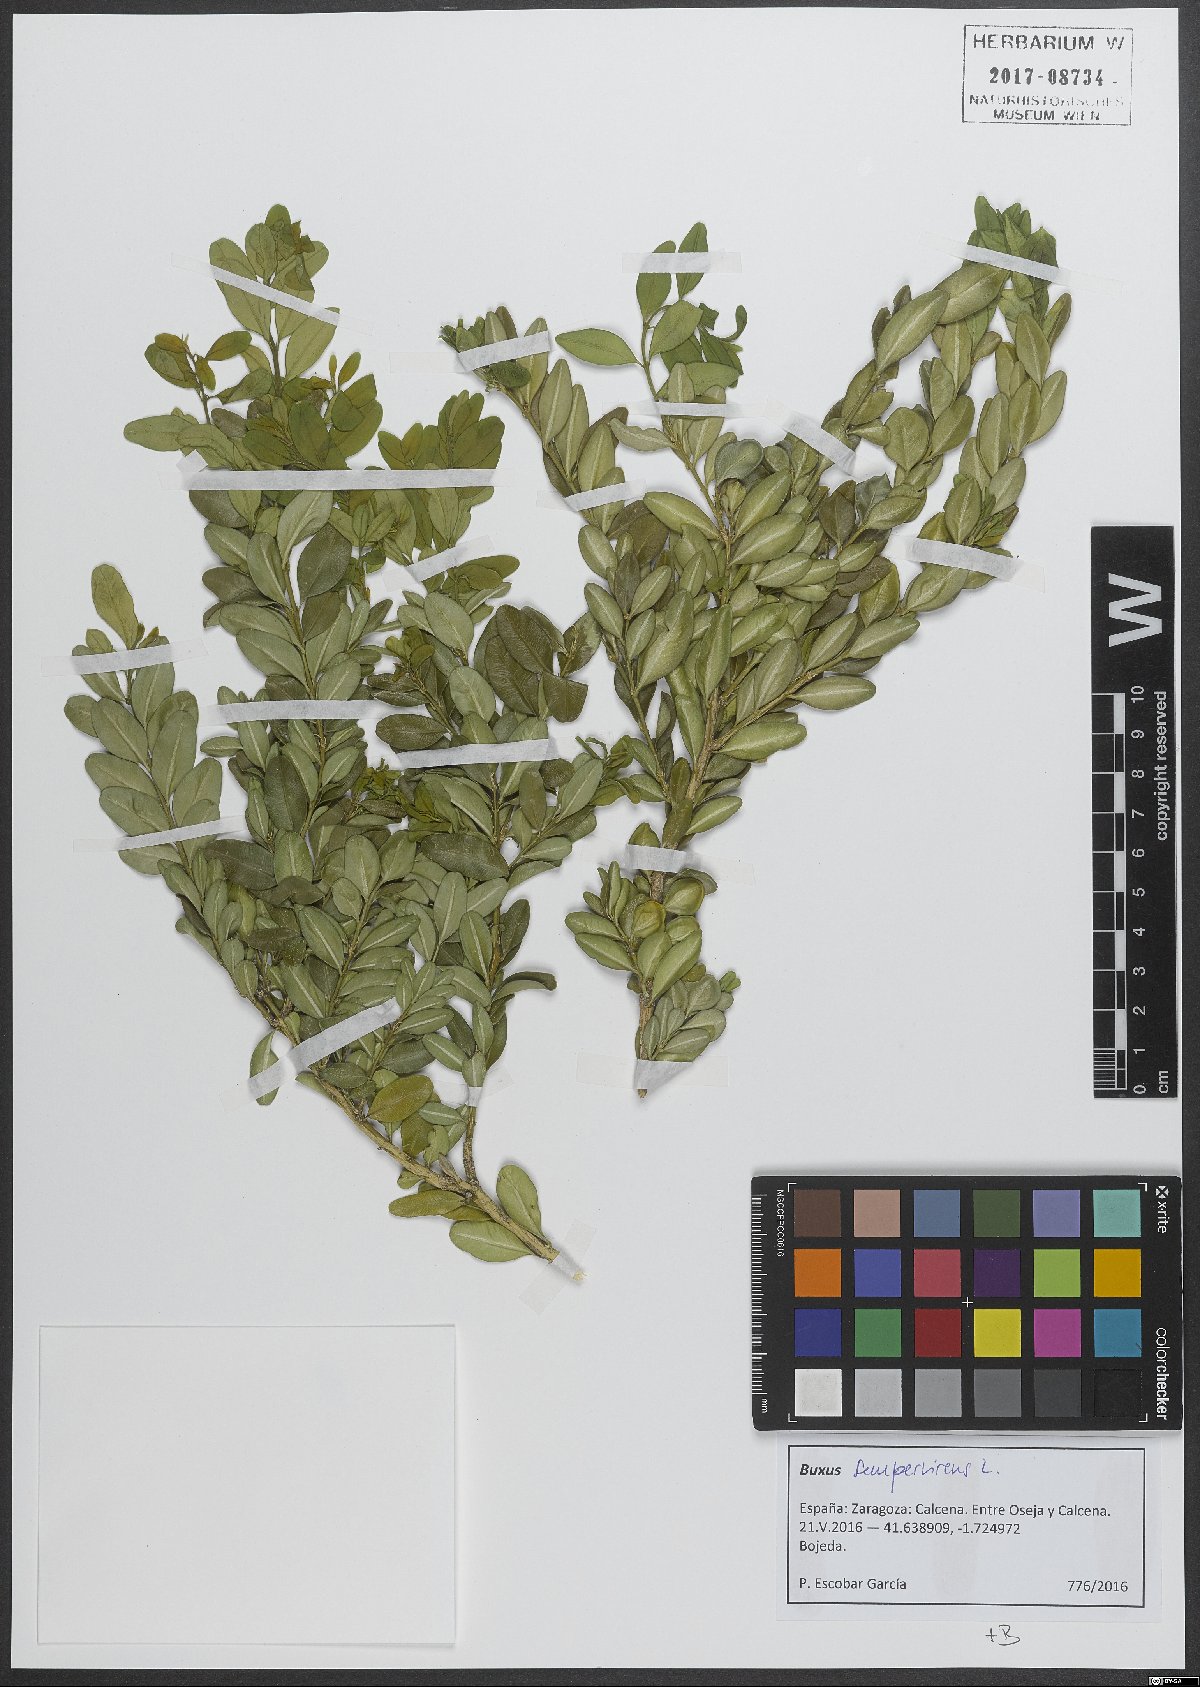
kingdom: Plantae
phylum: Tracheophyta
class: Magnoliopsida
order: Buxales
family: Buxaceae
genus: Buxus
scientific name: Buxus sempervirens
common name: Box
